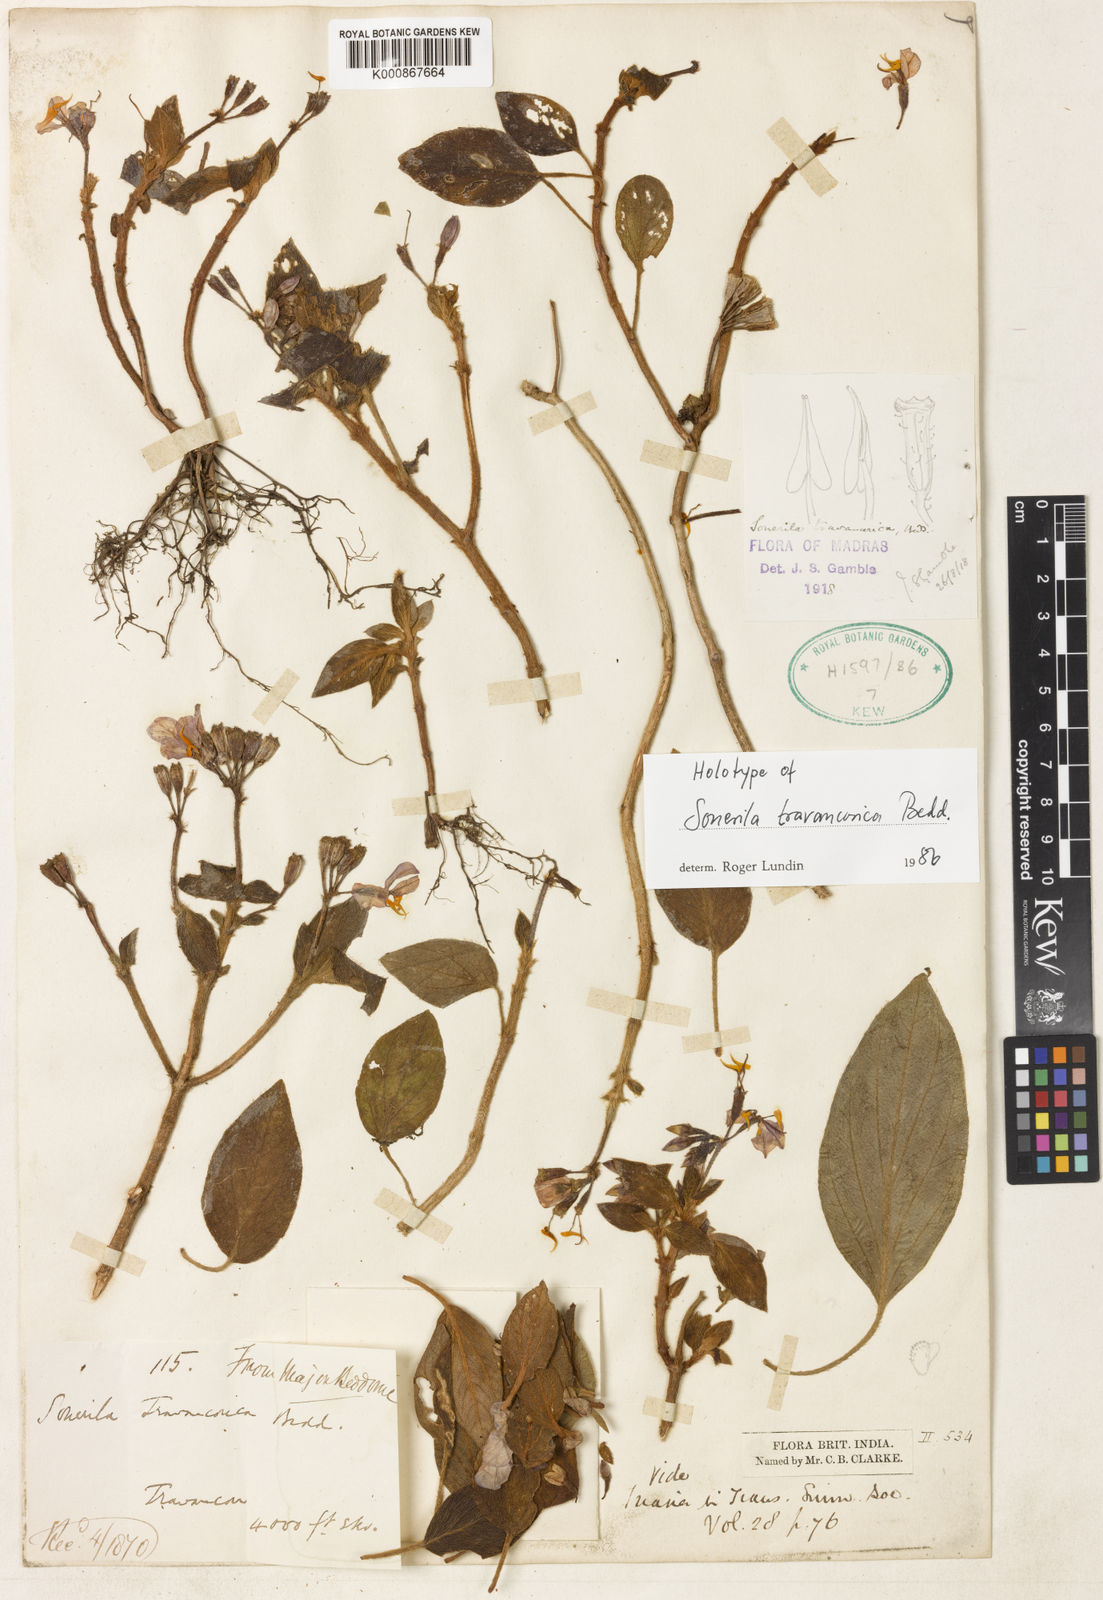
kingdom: Plantae
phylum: Tracheophyta
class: Magnoliopsida
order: Myrtales
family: Melastomataceae
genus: Sonerila
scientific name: Sonerila travancorica
